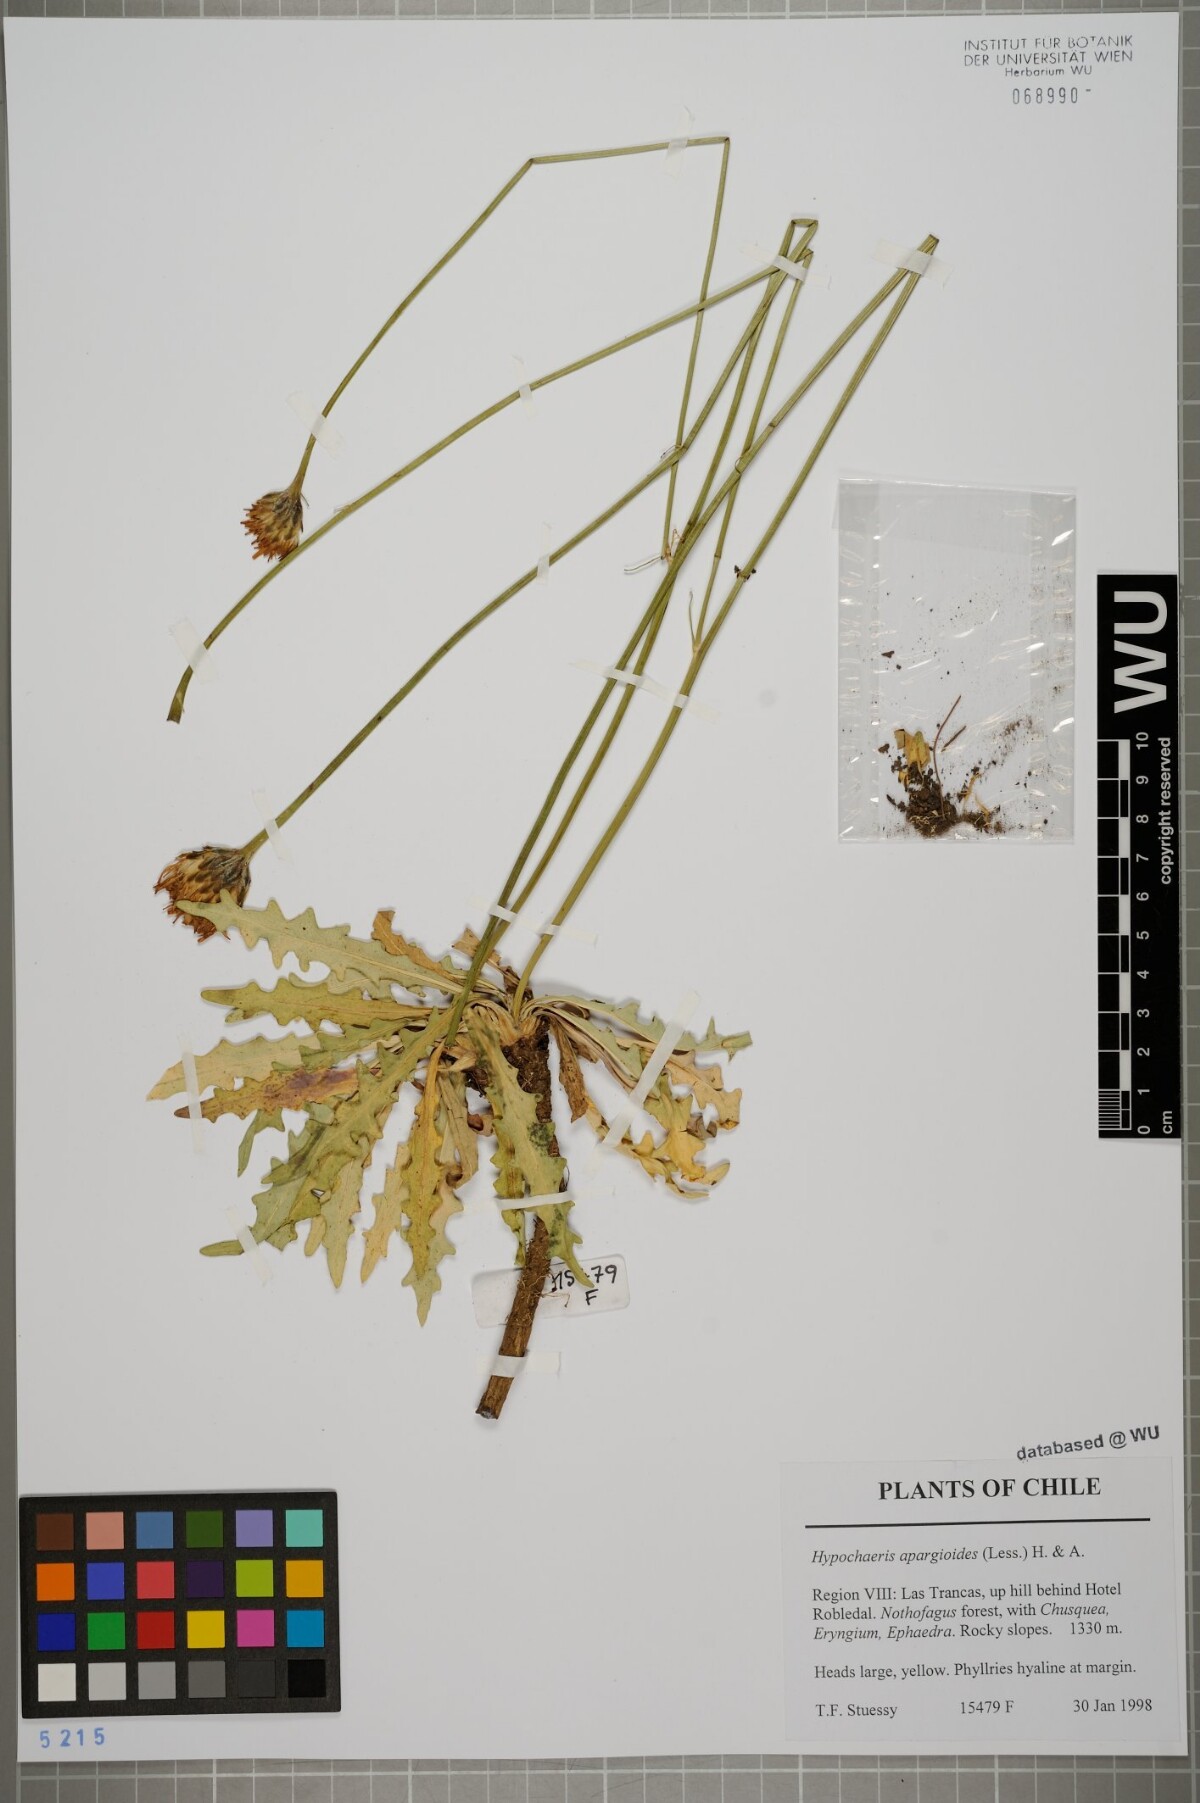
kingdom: Plantae
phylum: Tracheophyta
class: Magnoliopsida
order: Asterales
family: Asteraceae
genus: Hypochaeris
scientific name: Hypochaeris apargioides
